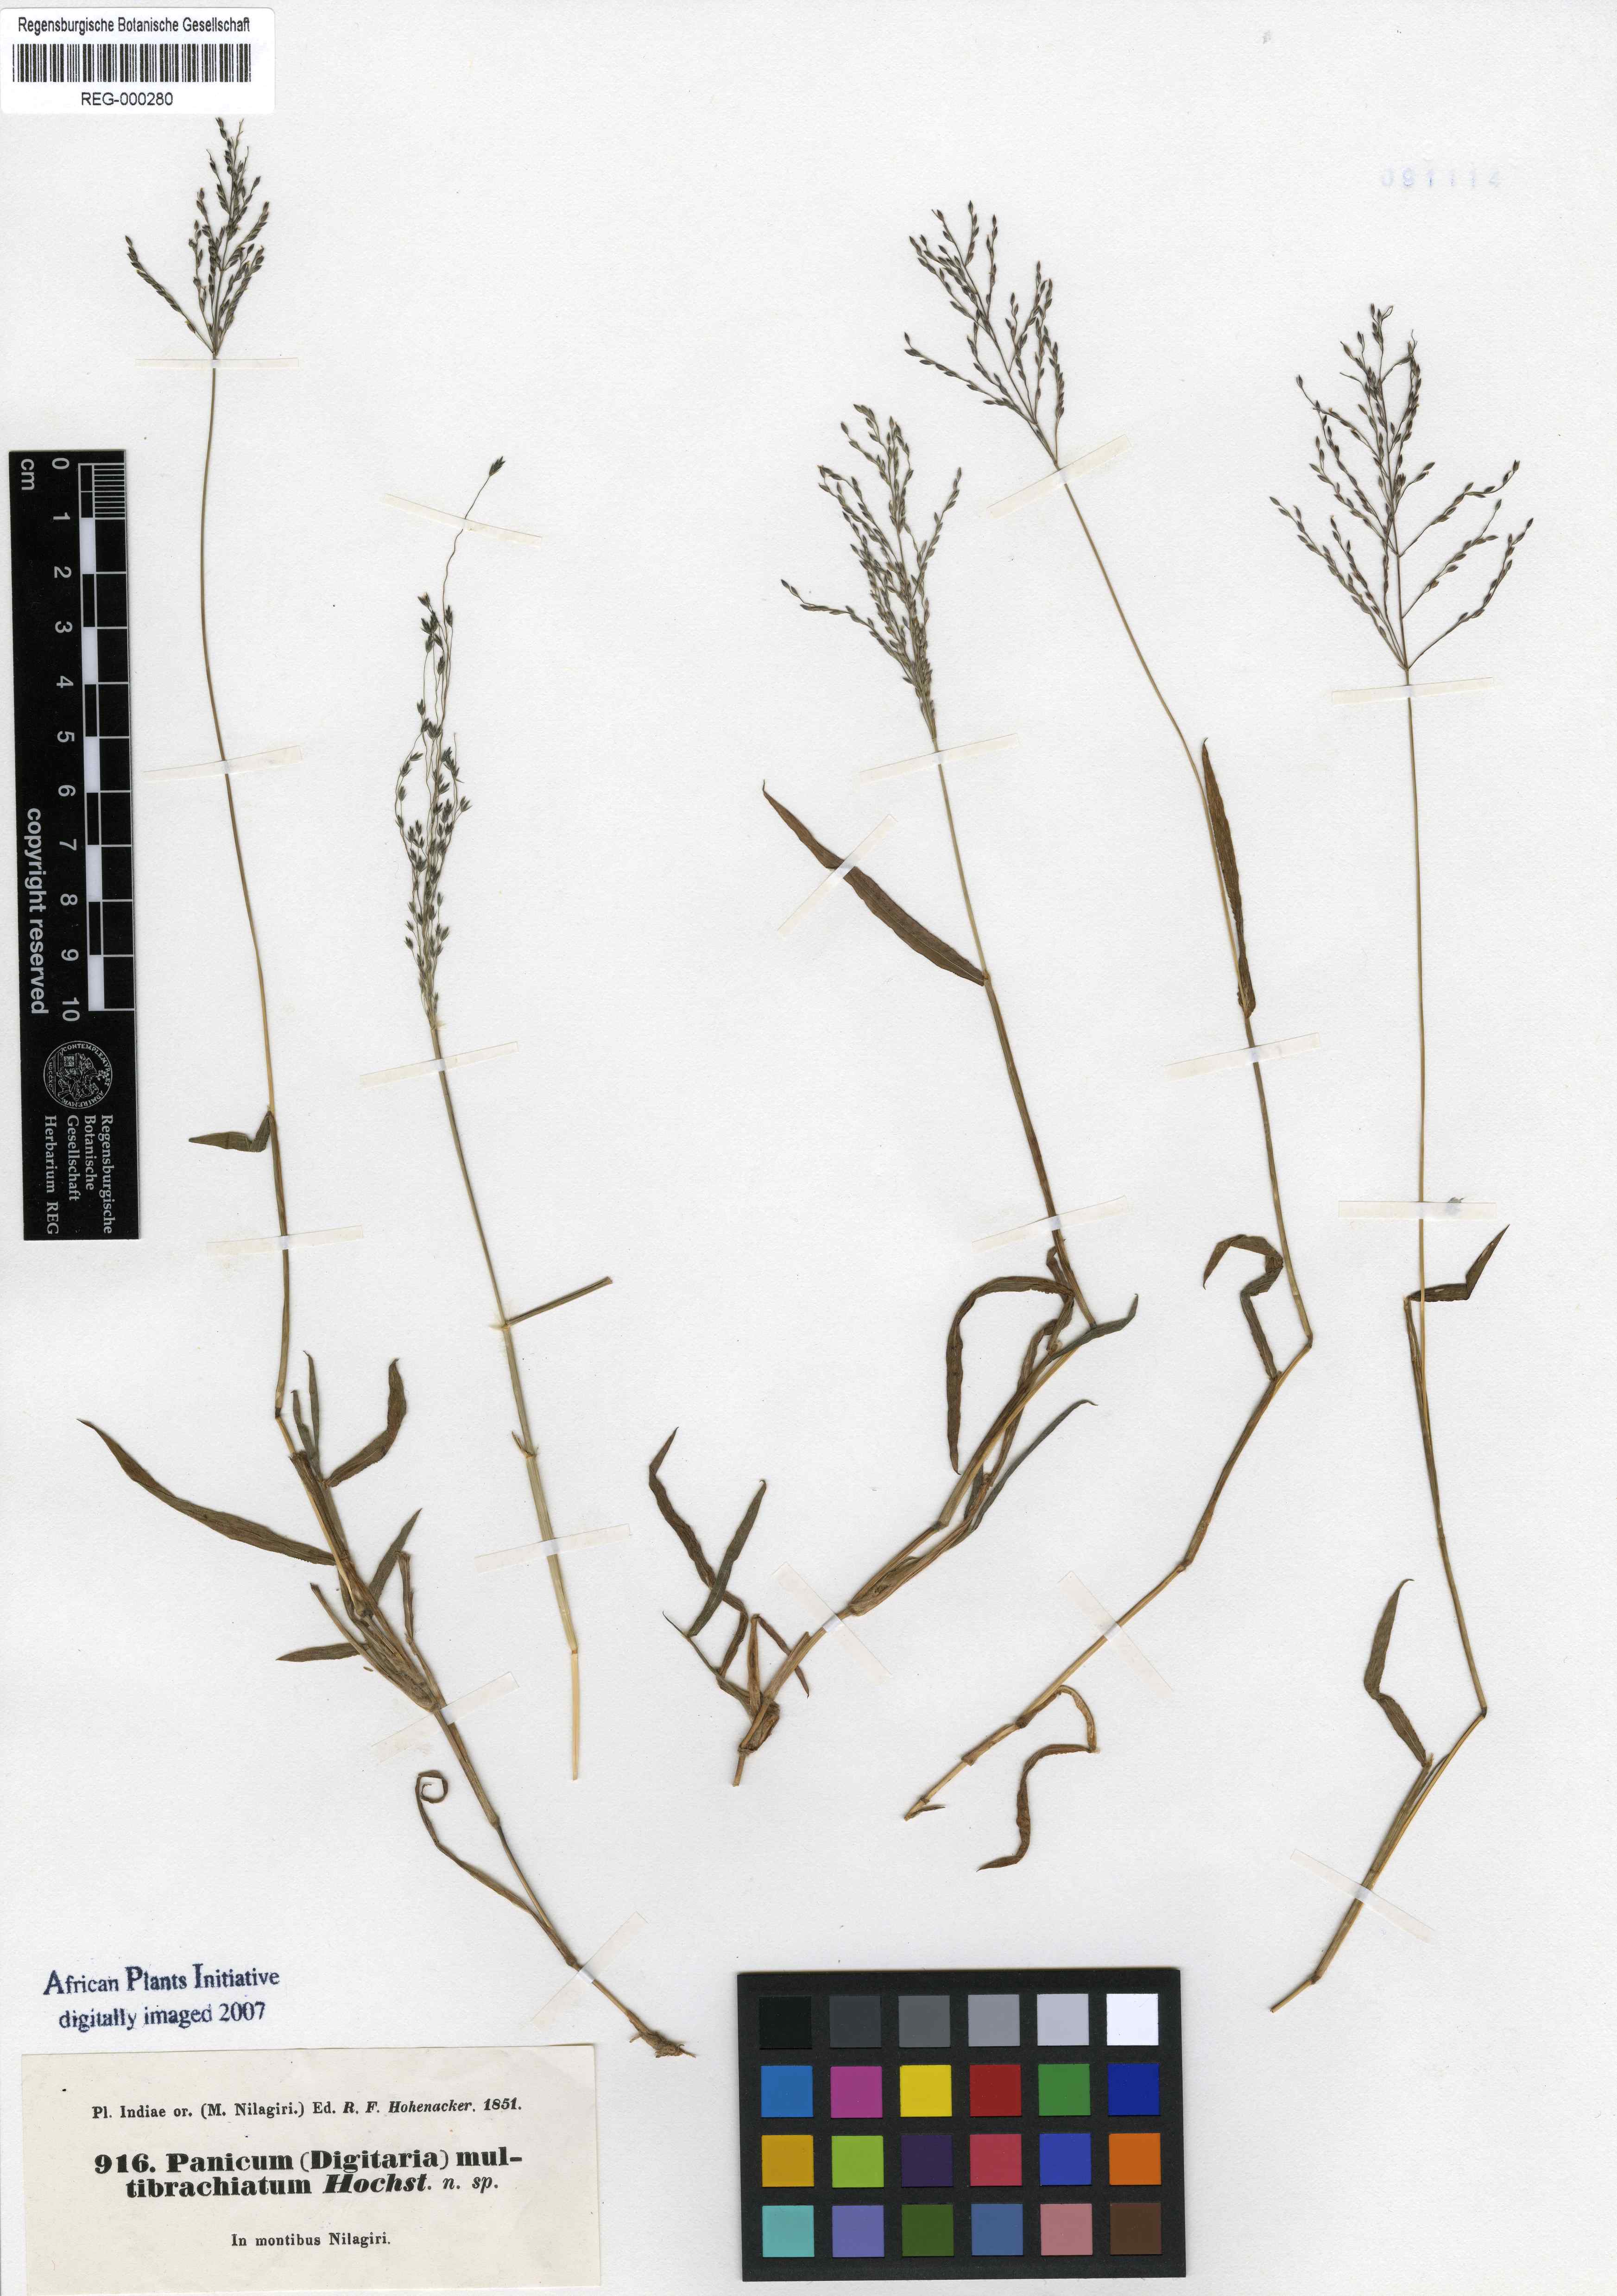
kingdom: Plantae
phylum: Tracheophyta
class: Liliopsida
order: Poales
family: Poaceae
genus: Digitaria
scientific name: Digitaria wallichiana
